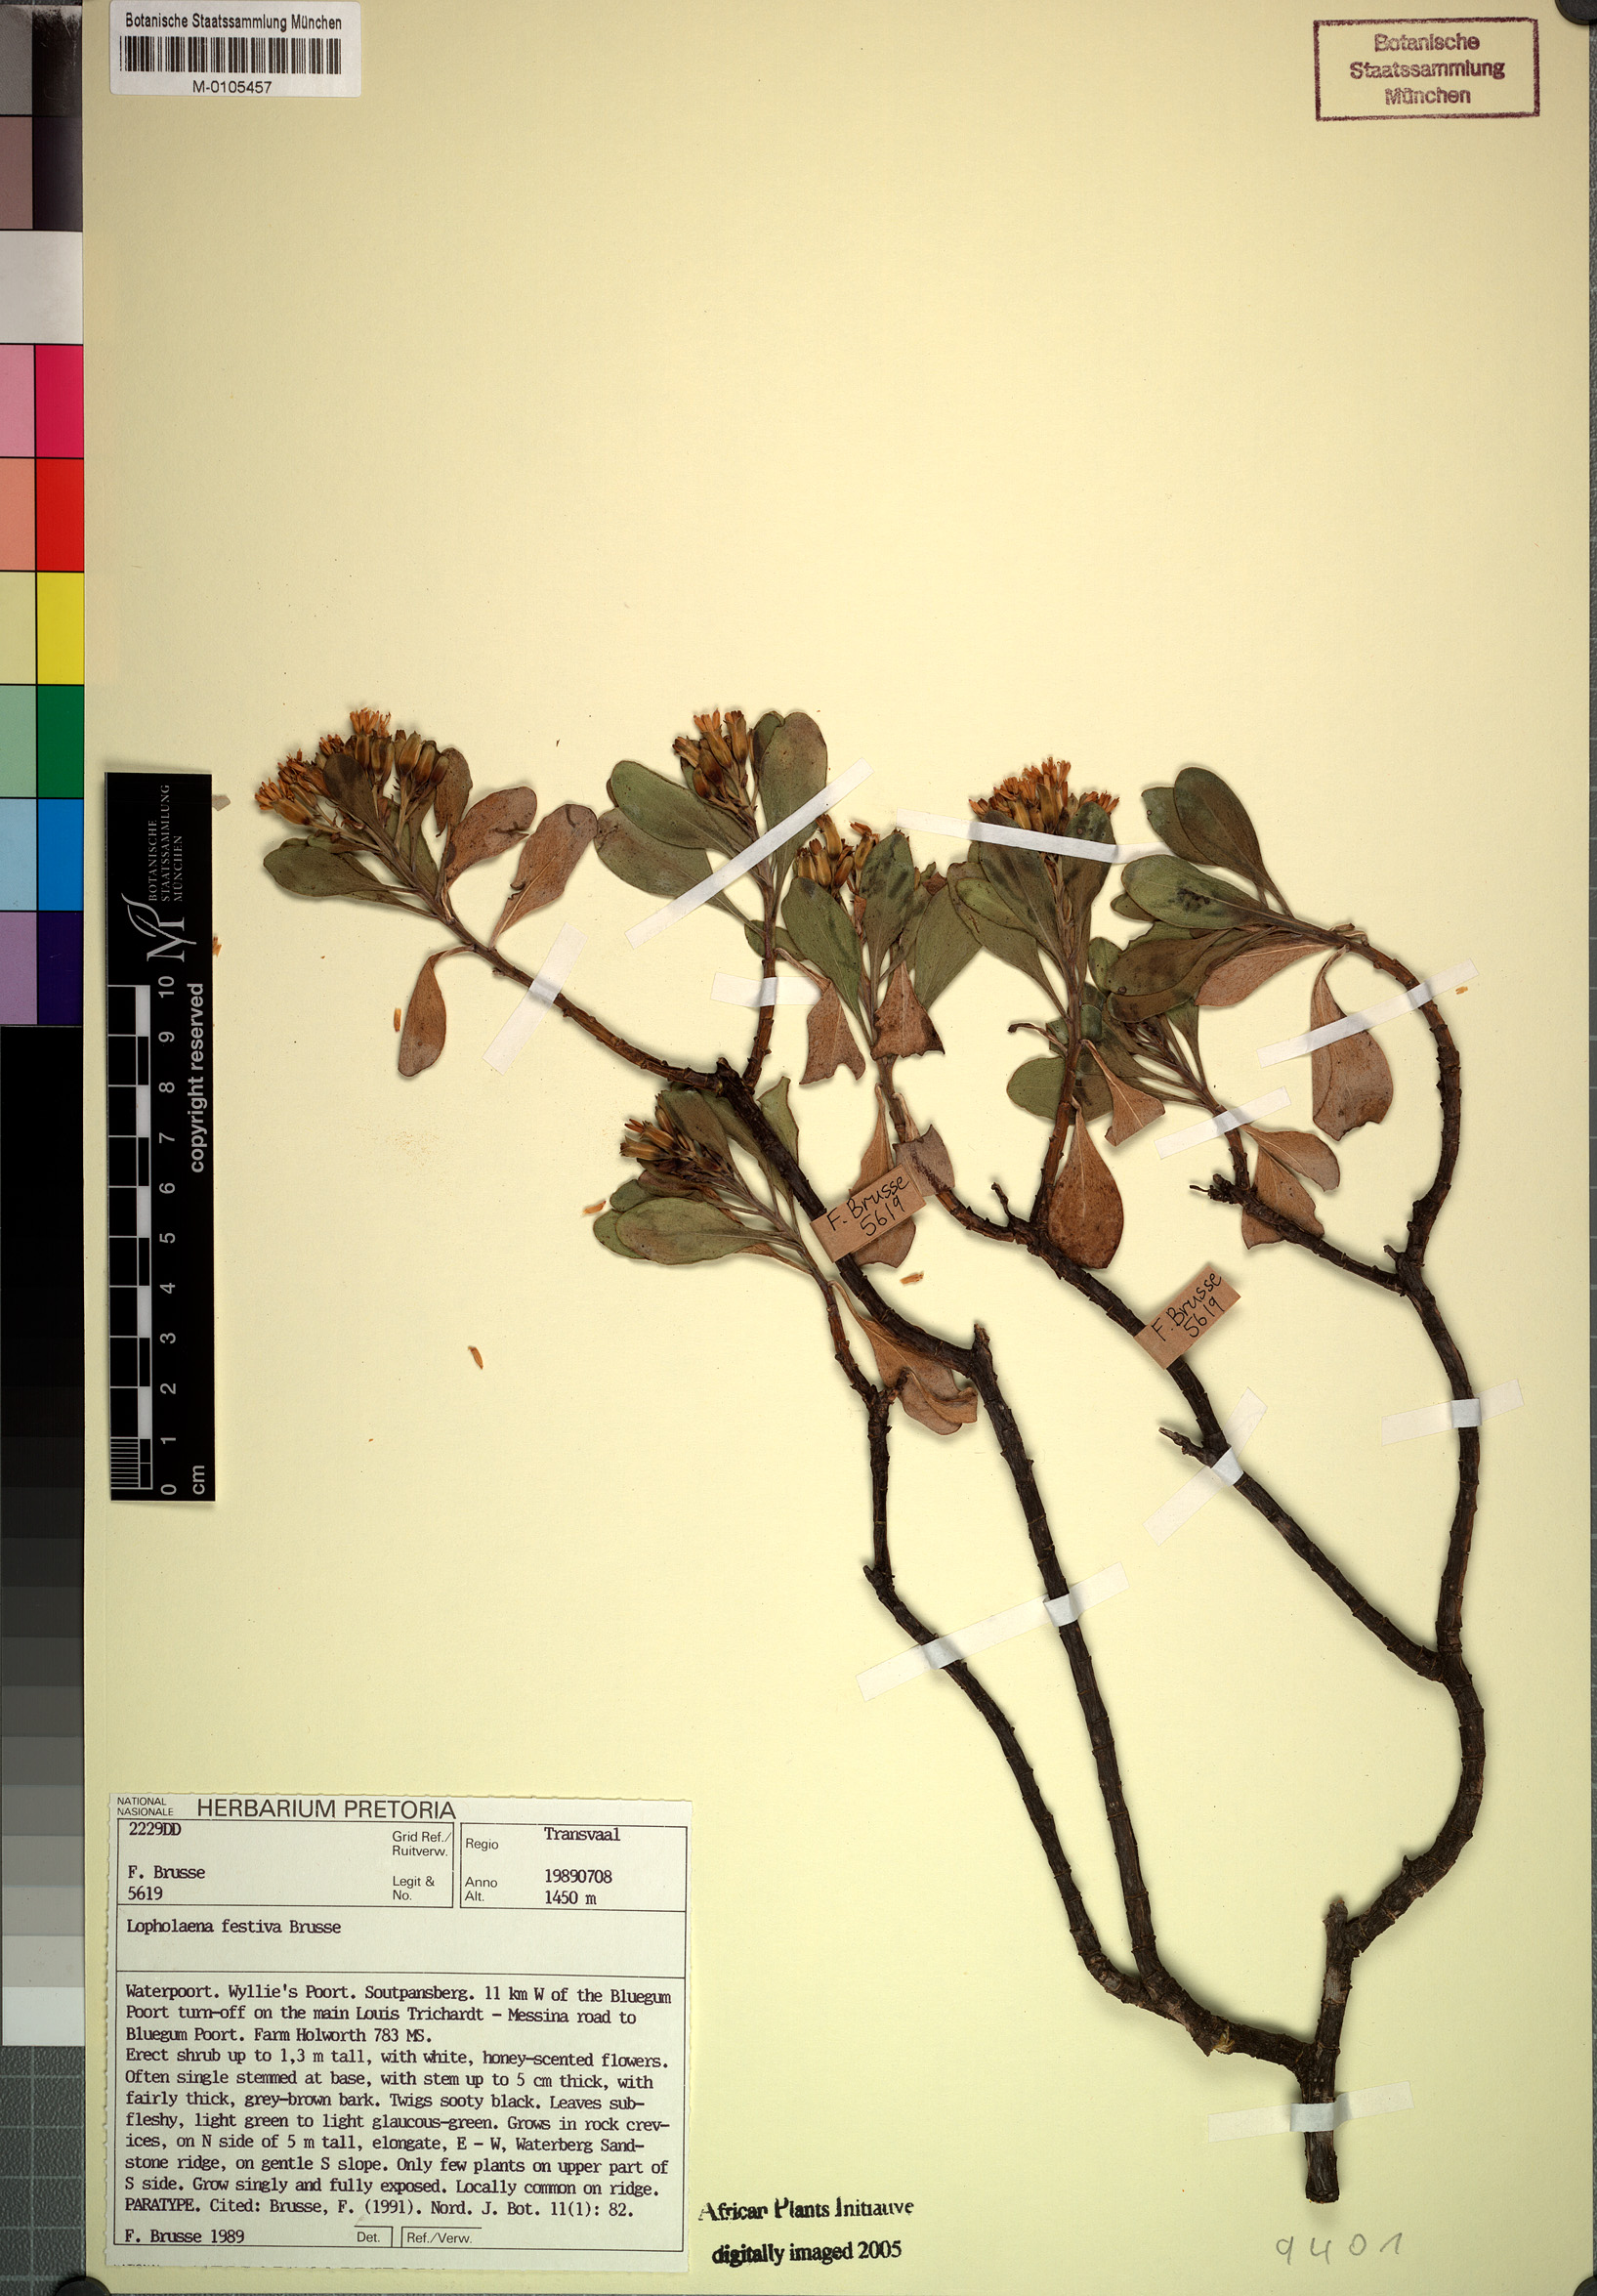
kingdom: Plantae
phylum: Tracheophyta
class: Magnoliopsida
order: Asterales
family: Asteraceae
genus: Lopholaena
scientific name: Lopholaena festiva
